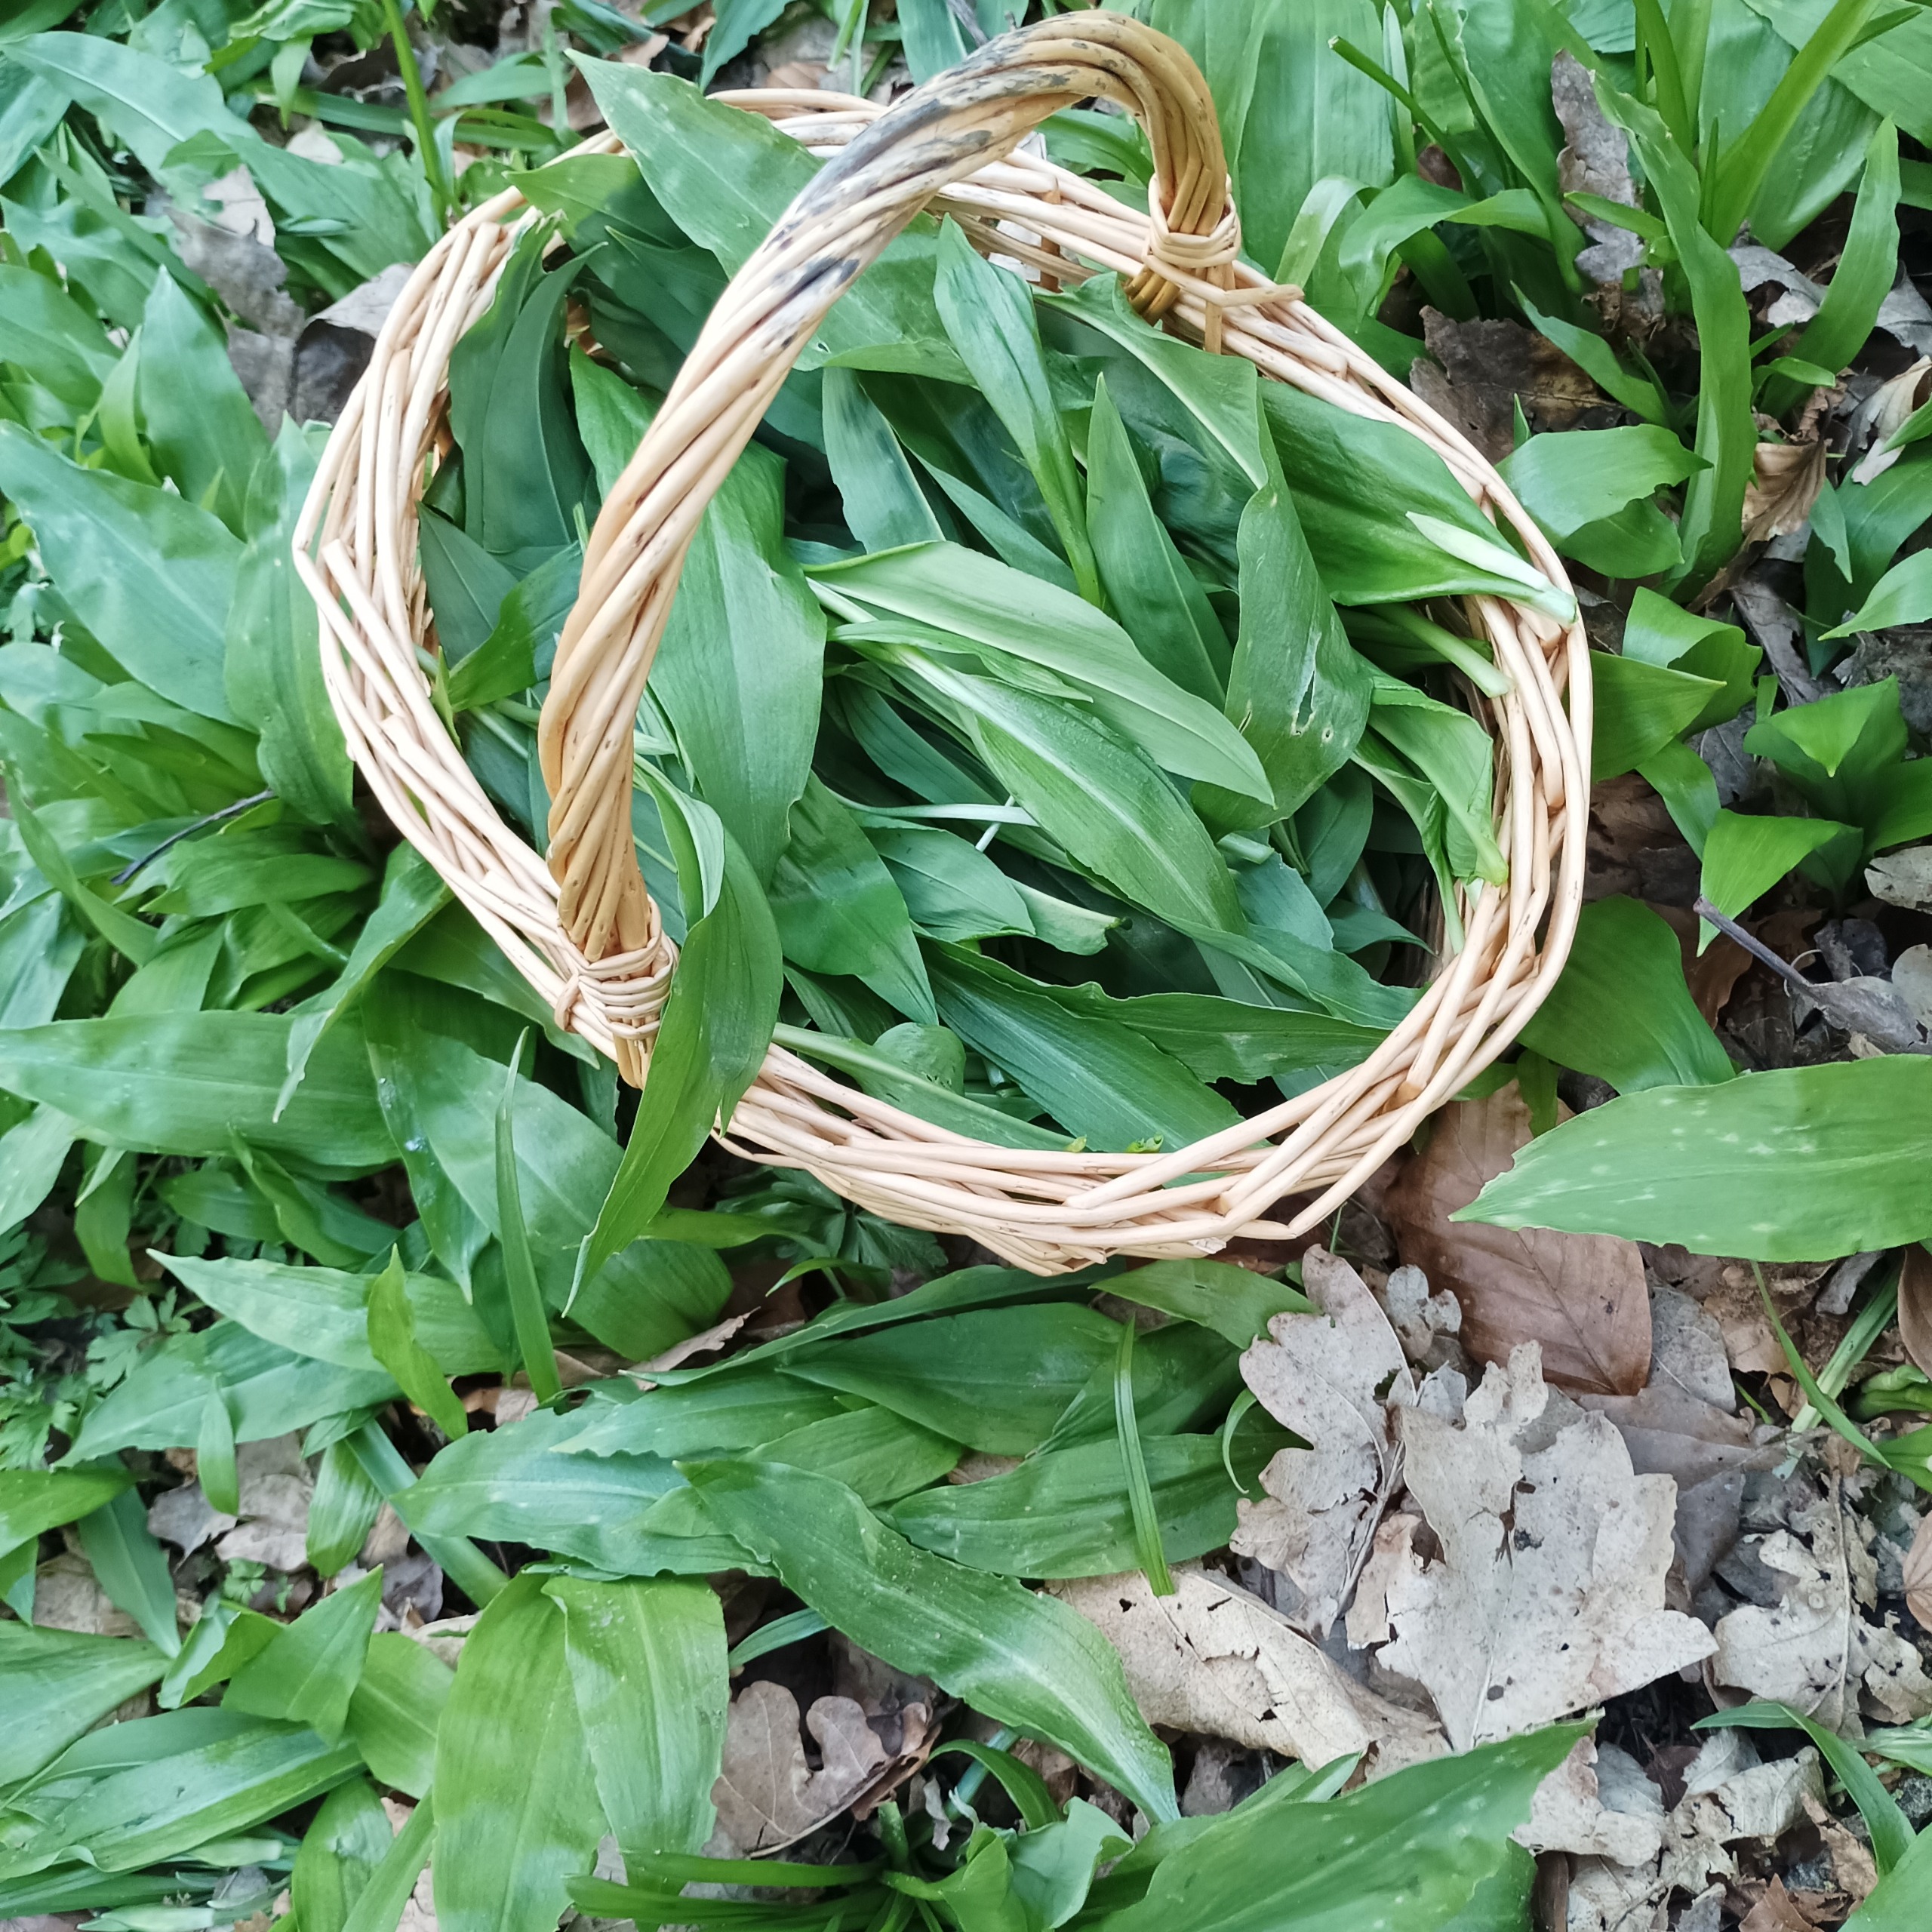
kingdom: Plantae
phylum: Tracheophyta
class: Liliopsida
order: Asparagales
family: Amaryllidaceae
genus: Allium
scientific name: Allium ursinum
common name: Rams-løg
